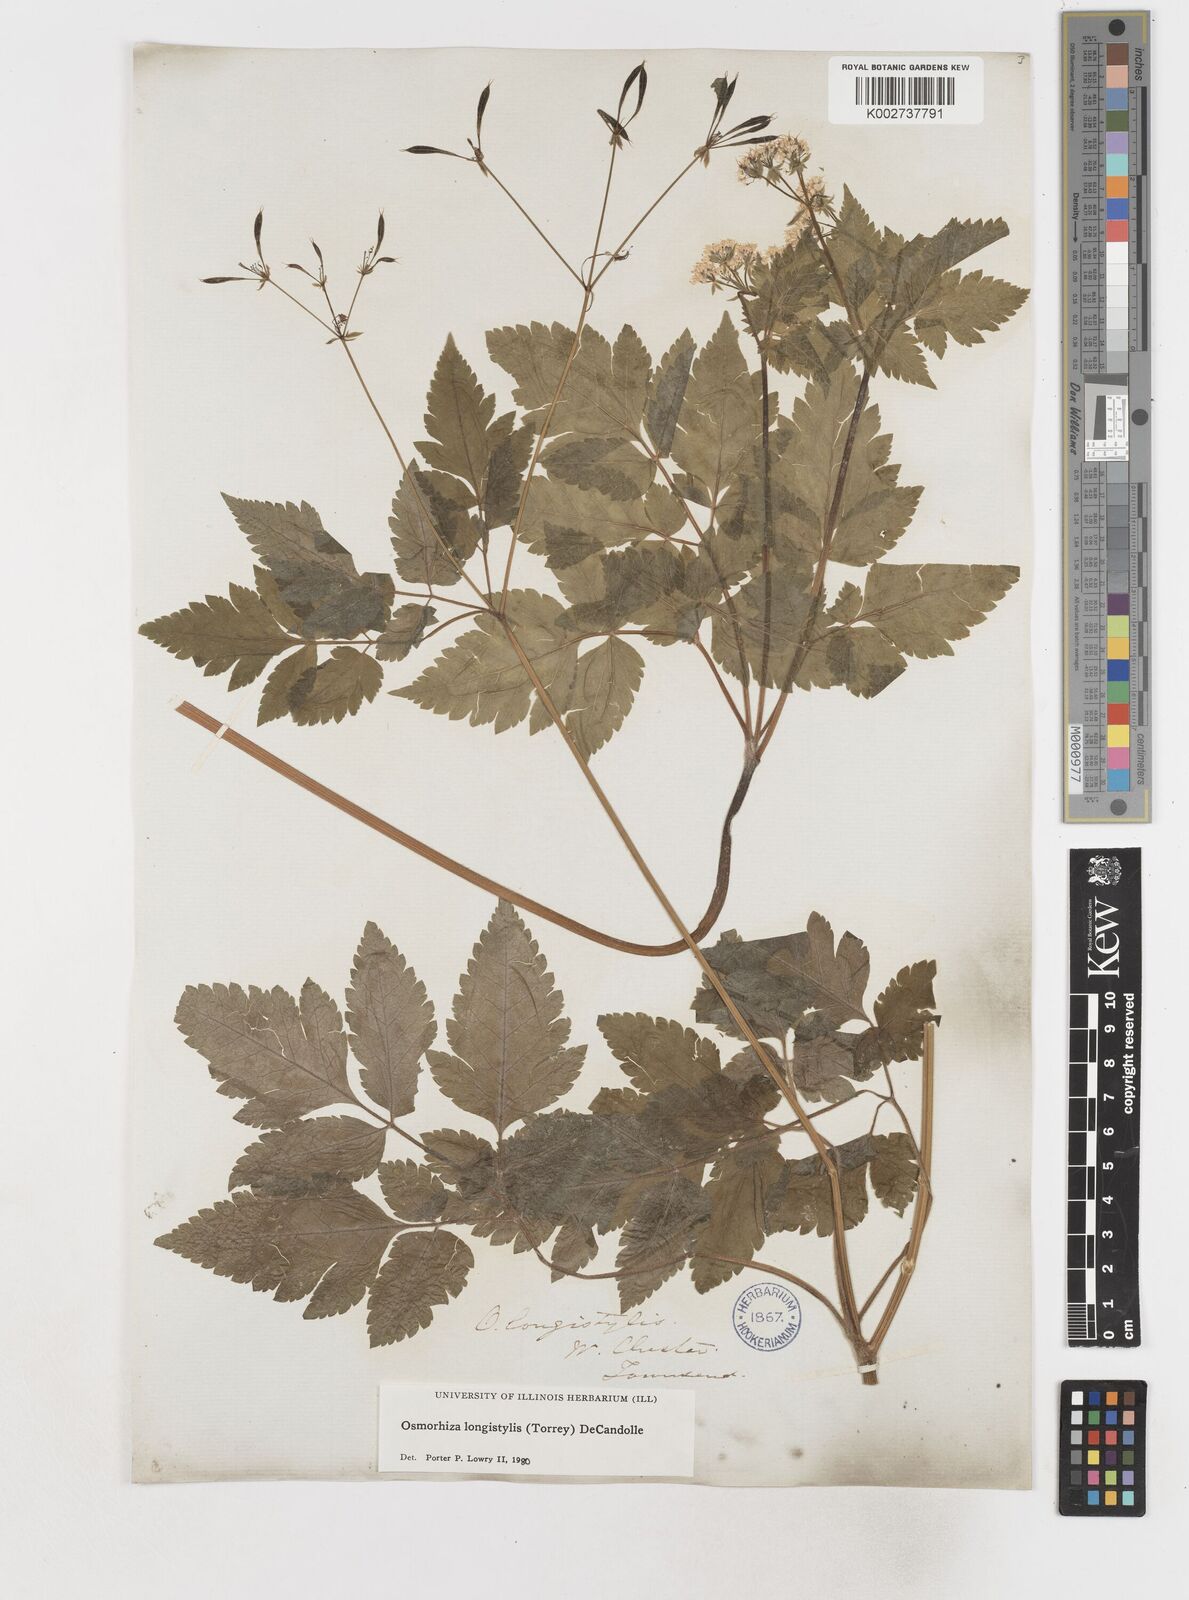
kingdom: Plantae
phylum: Tracheophyta
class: Magnoliopsida
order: Apiales
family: Apiaceae
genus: Osmorhiza
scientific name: Osmorhiza longistylis
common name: Smooth sweet cicely
